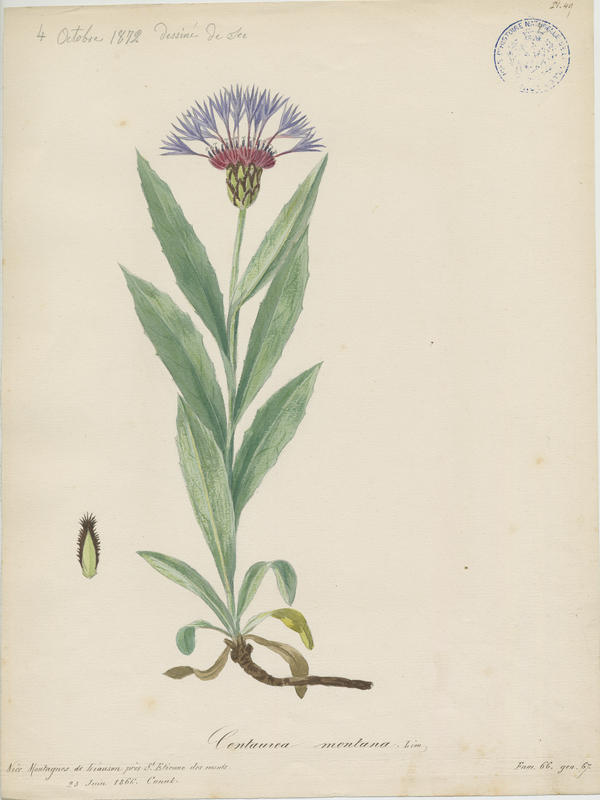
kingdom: Plantae
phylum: Tracheophyta
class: Magnoliopsida
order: Asterales
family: Asteraceae
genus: Centaurea
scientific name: Centaurea montana
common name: Perennial cornflower
